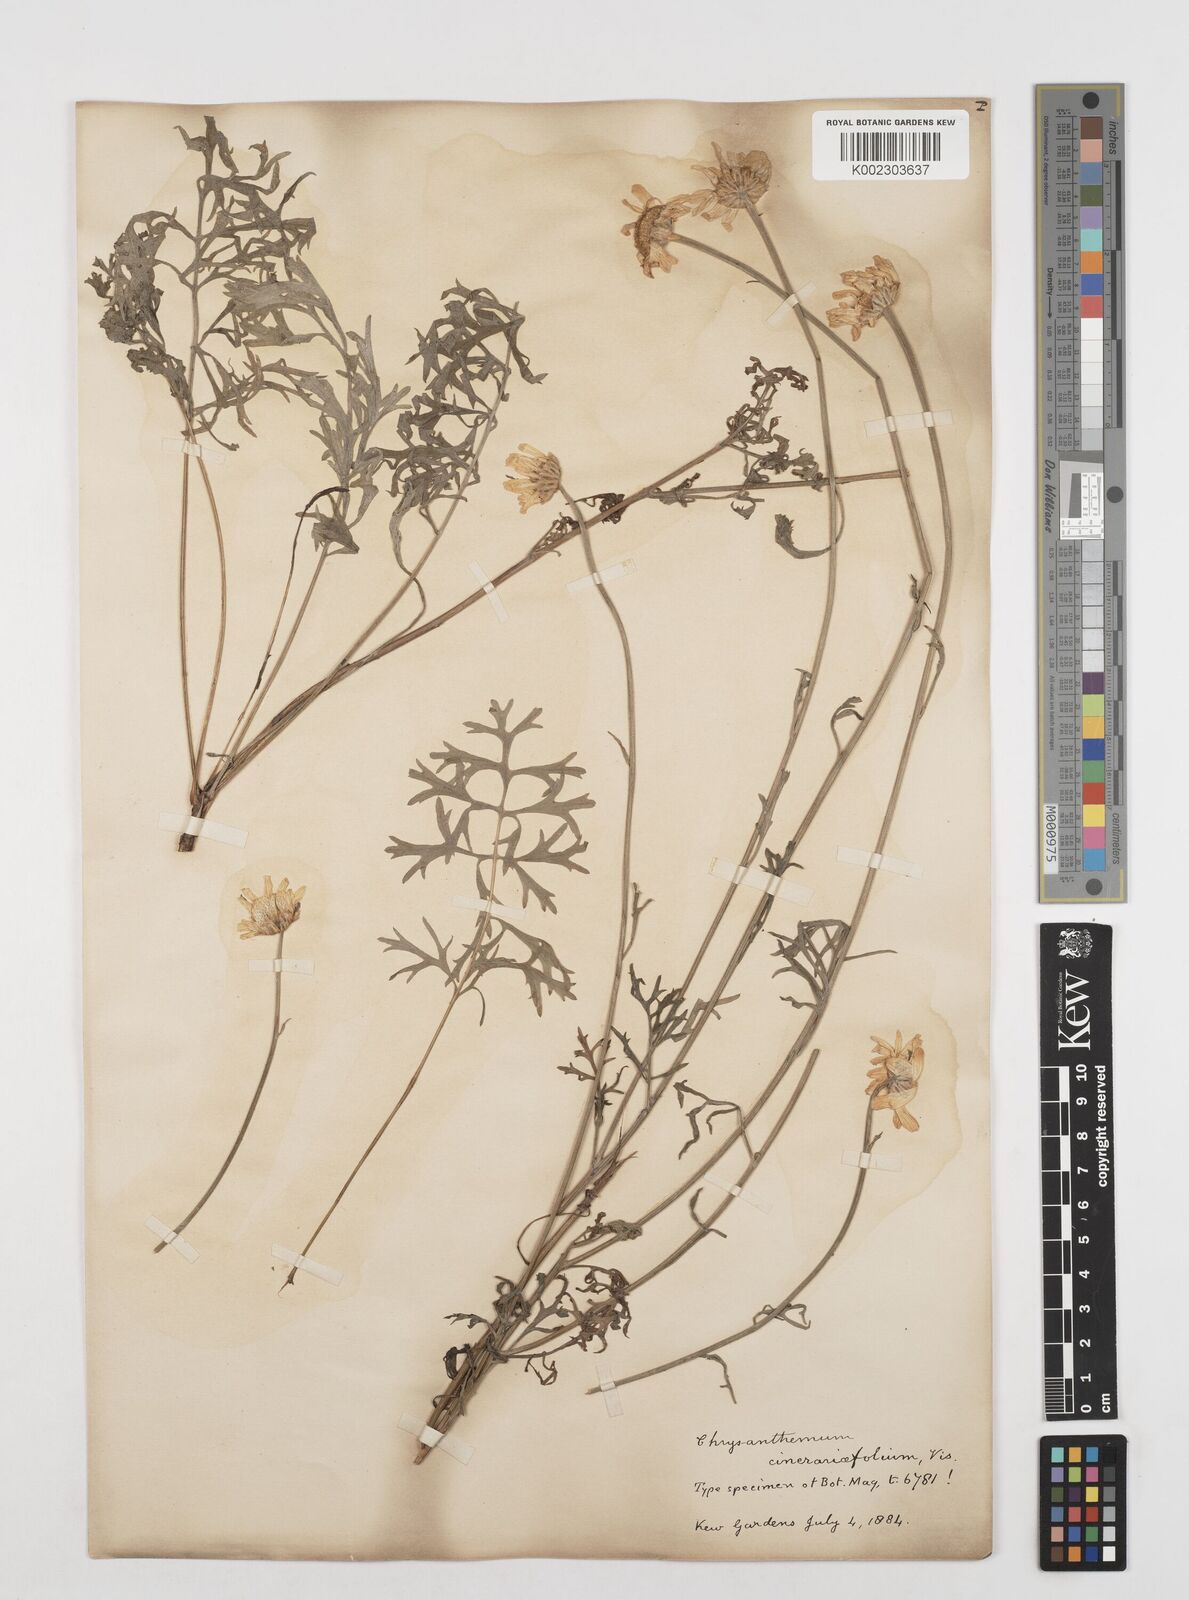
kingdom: Plantae
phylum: Tracheophyta
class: Magnoliopsida
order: Asterales
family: Asteraceae
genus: Tanacetum
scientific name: Tanacetum cinerariifolium
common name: Dalmatian pyrethrum
